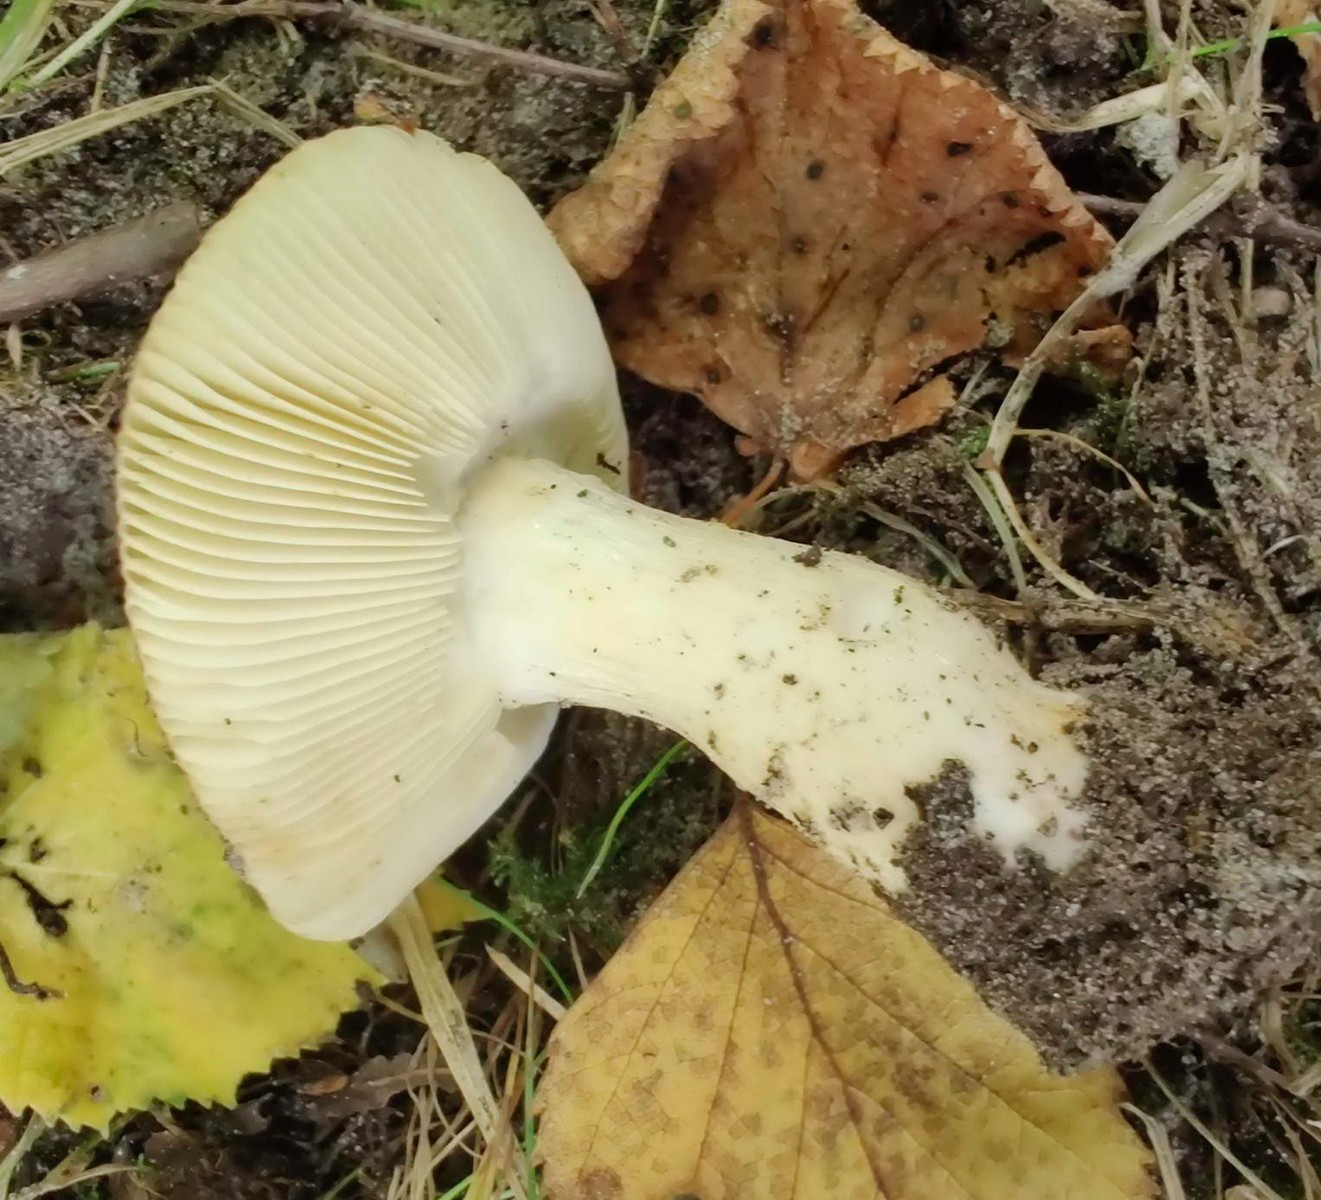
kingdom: Fungi
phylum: Basidiomycota
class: Agaricomycetes
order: Russulales
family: Russulaceae
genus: Russula
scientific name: Russula gracillima
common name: slank skørhat
